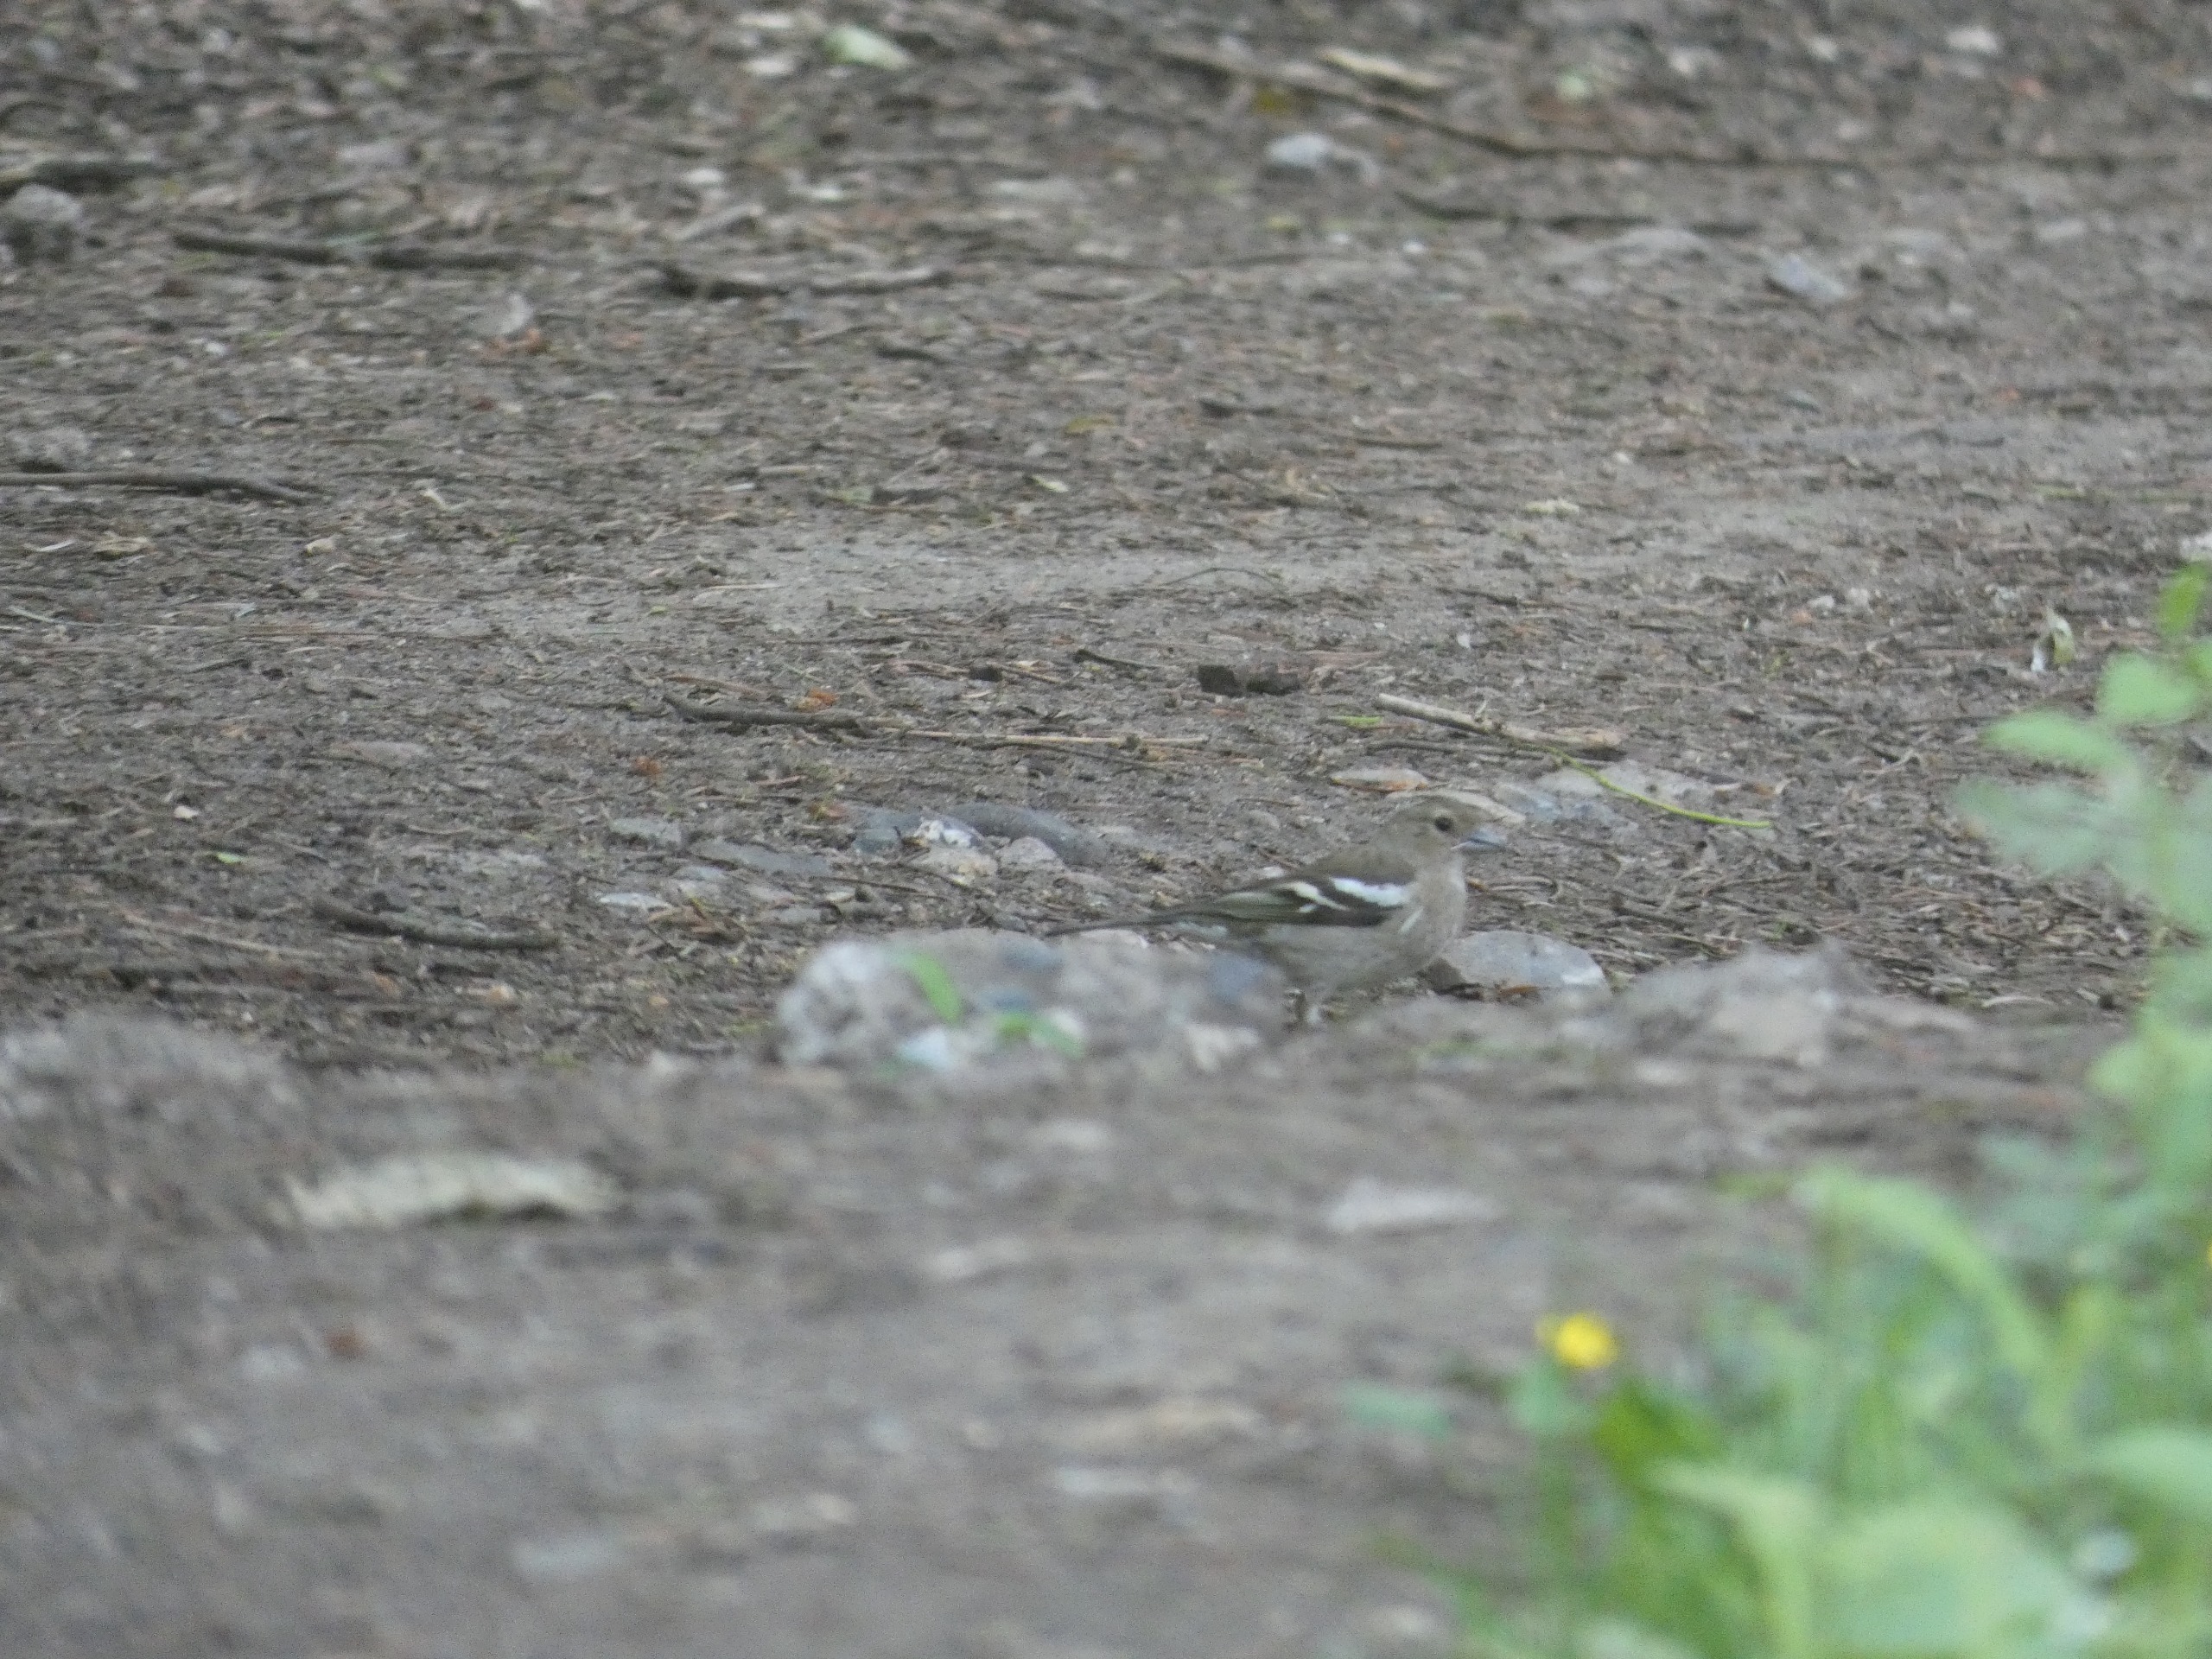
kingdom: Animalia
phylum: Chordata
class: Aves
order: Passeriformes
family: Fringillidae
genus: Fringilla
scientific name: Fringilla coelebs
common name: Bogfinke
